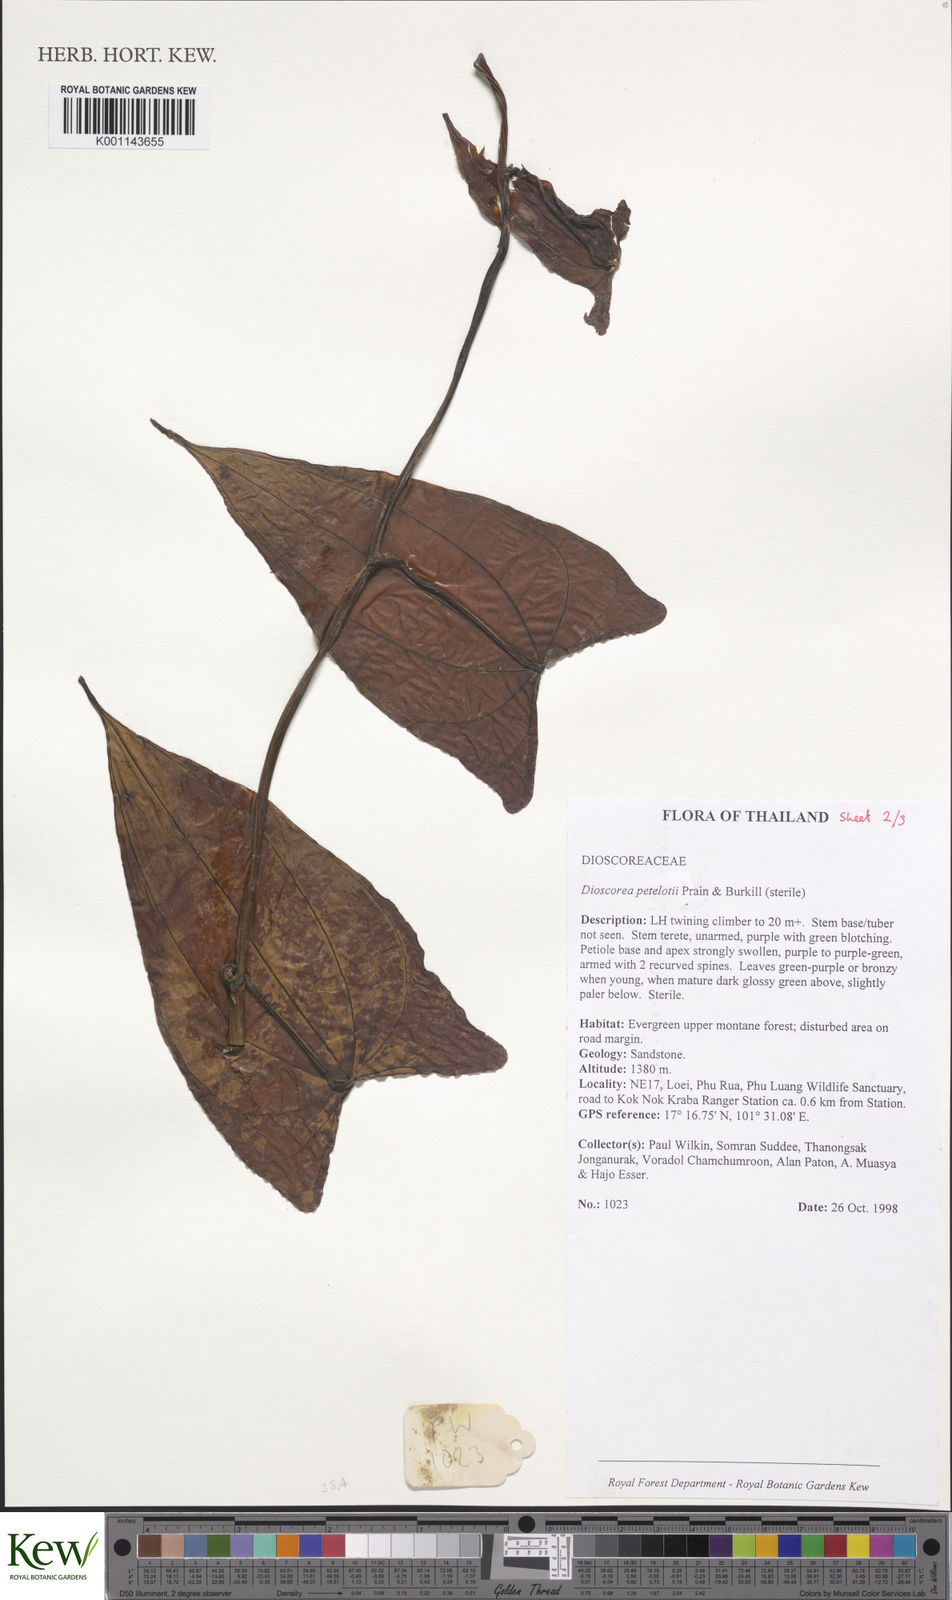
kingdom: Plantae
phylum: Tracheophyta
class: Liliopsida
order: Dioscoreales
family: Dioscoreaceae
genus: Dioscorea
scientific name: Dioscorea petelotii
